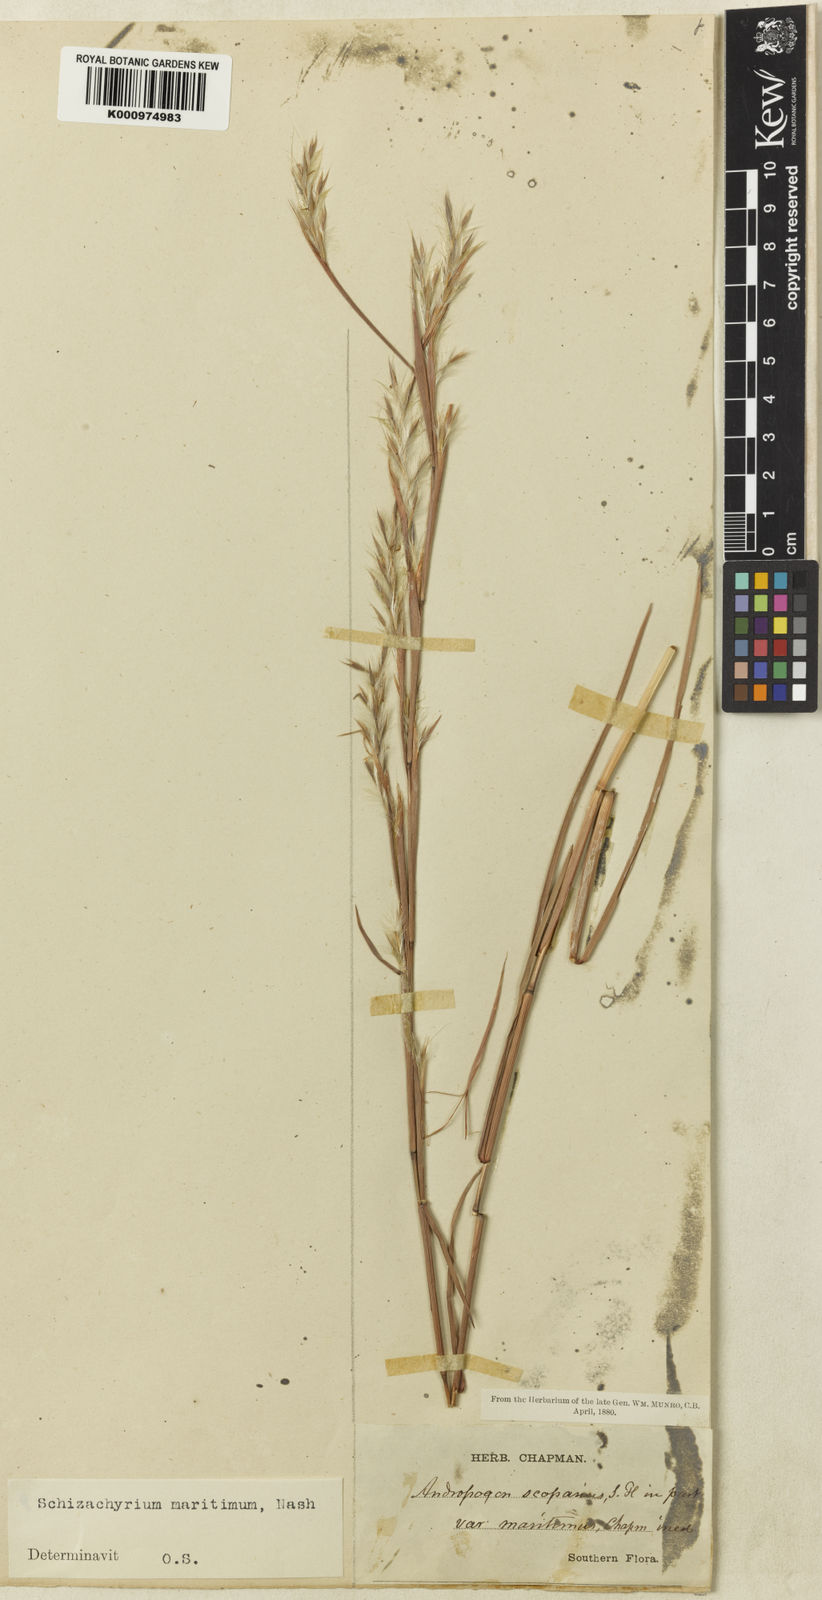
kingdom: Plantae
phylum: Tracheophyta
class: Liliopsida
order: Poales
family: Poaceae
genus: Schizachyrium
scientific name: Schizachyrium maritimum
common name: Gulf bluestem
